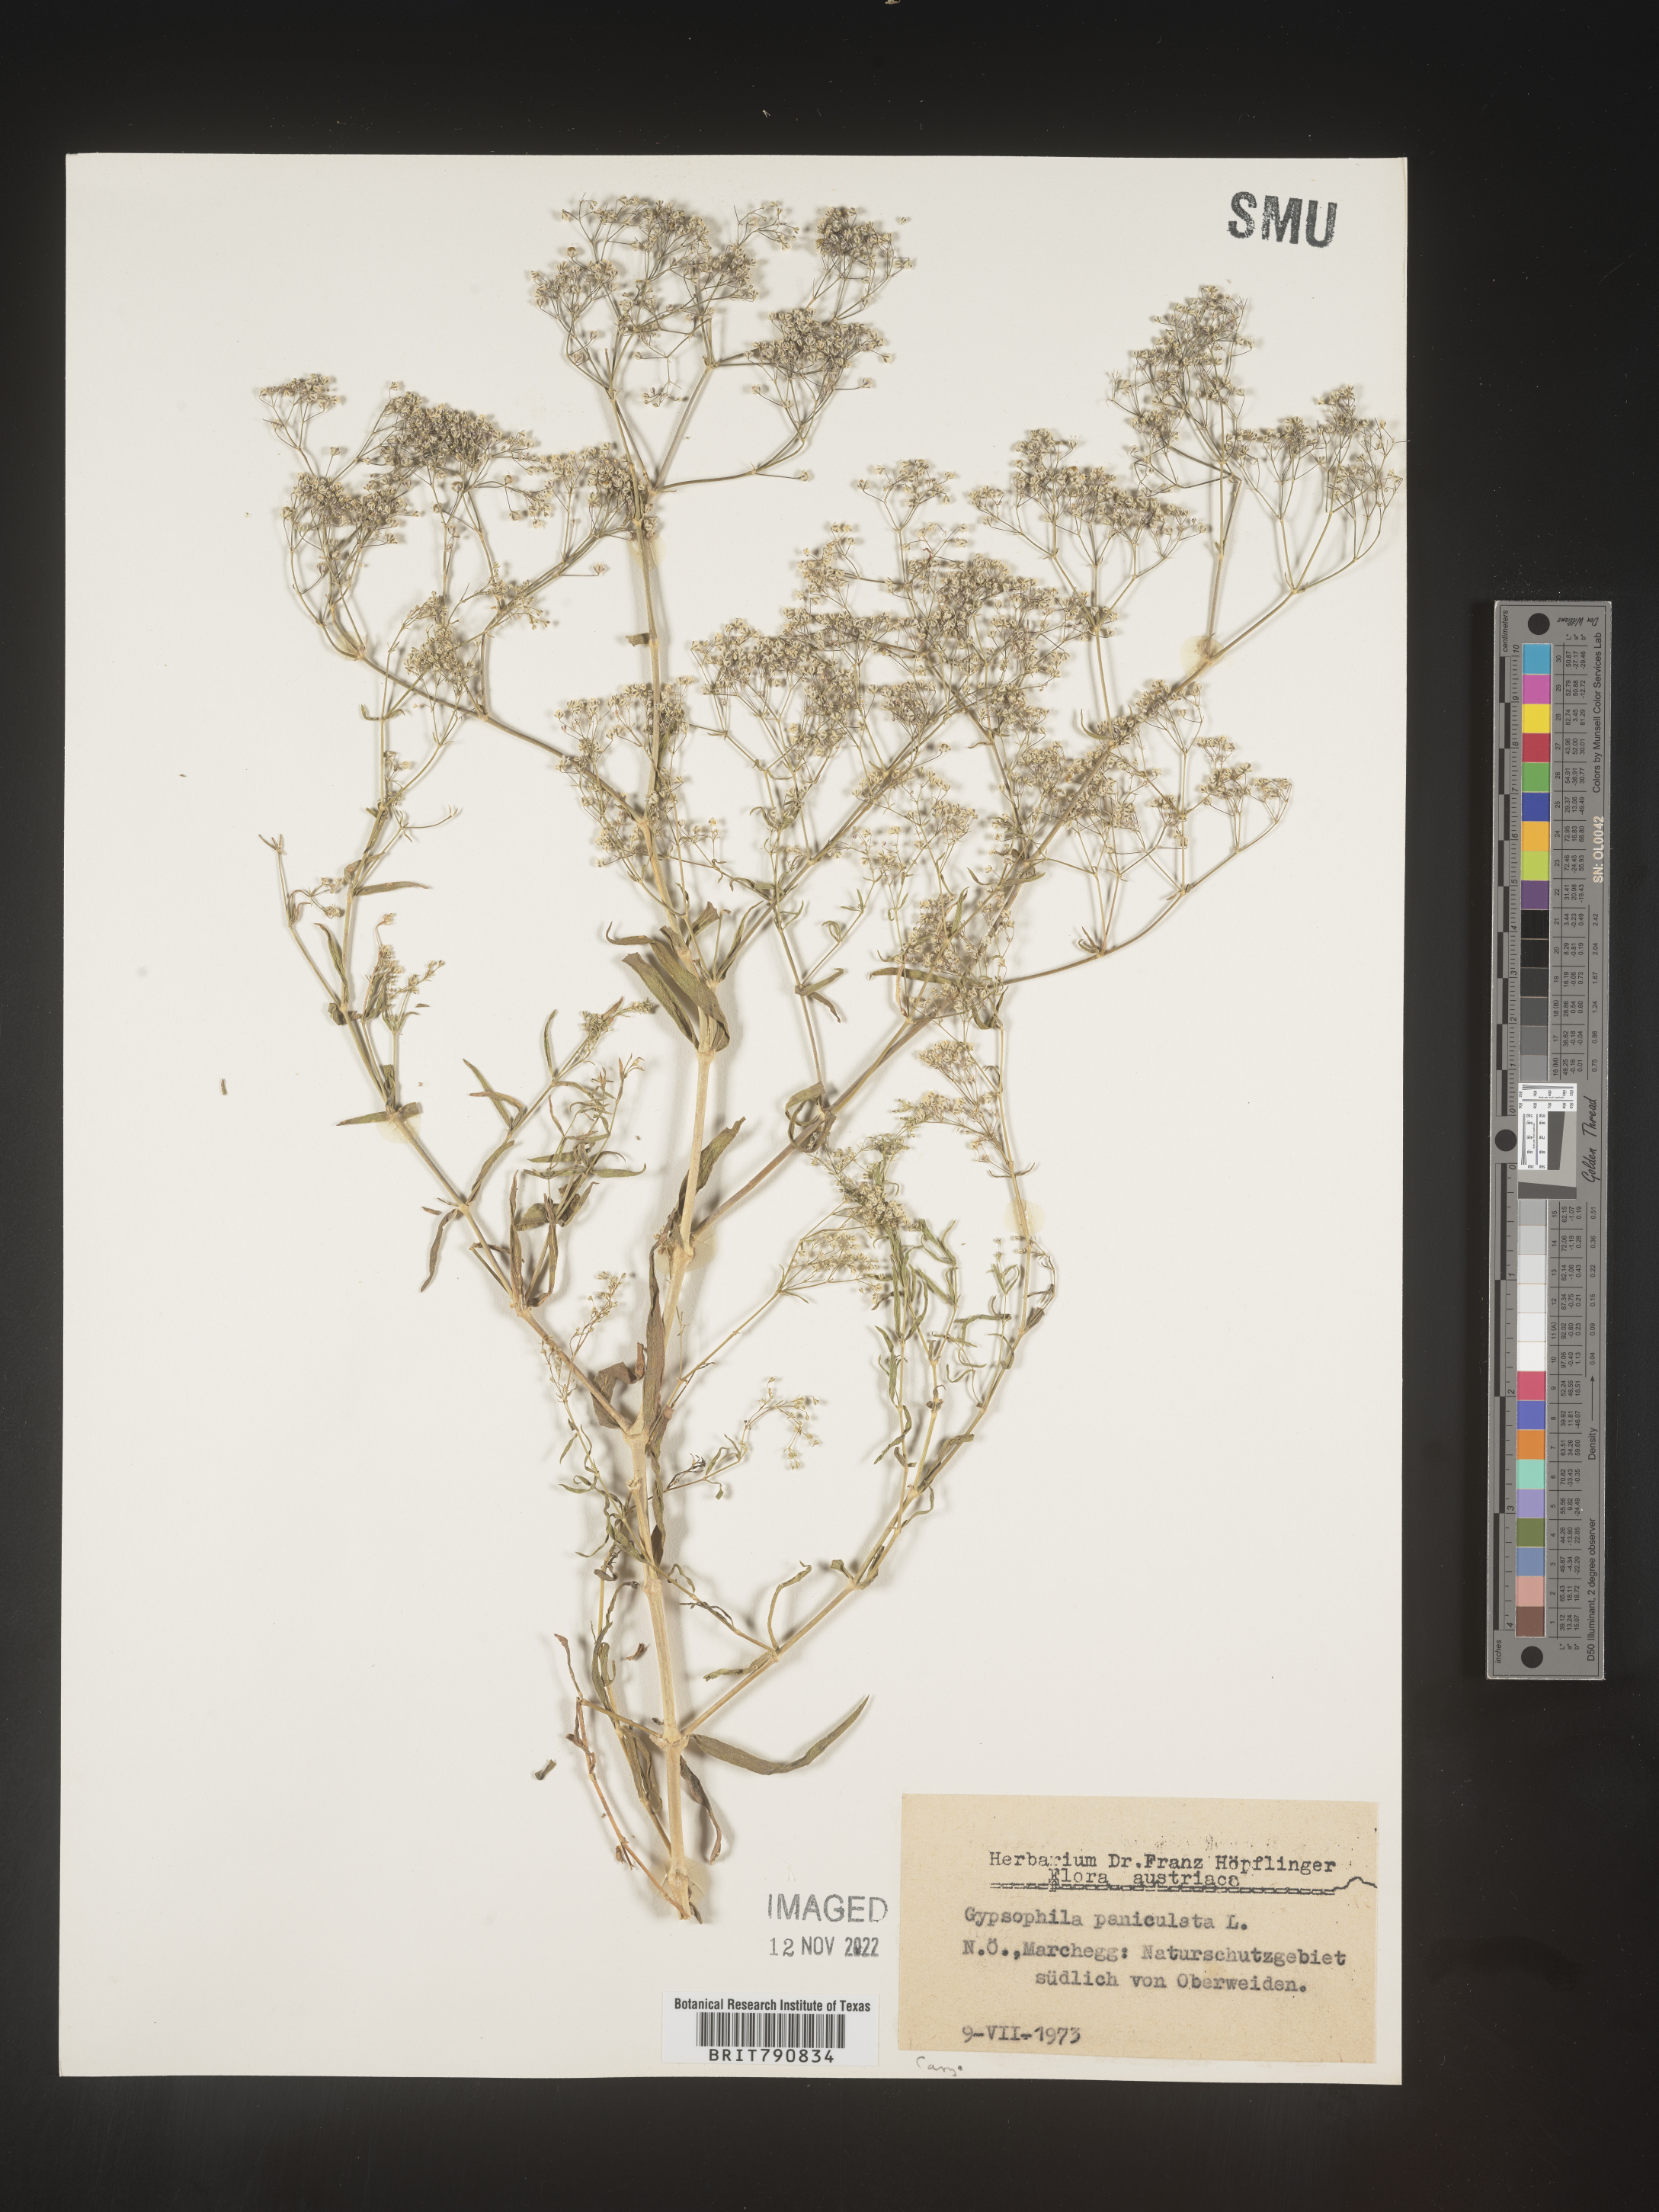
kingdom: Plantae
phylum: Tracheophyta
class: Magnoliopsida
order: Caryophyllales
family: Caryophyllaceae
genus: Gypsophila
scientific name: Gypsophila
